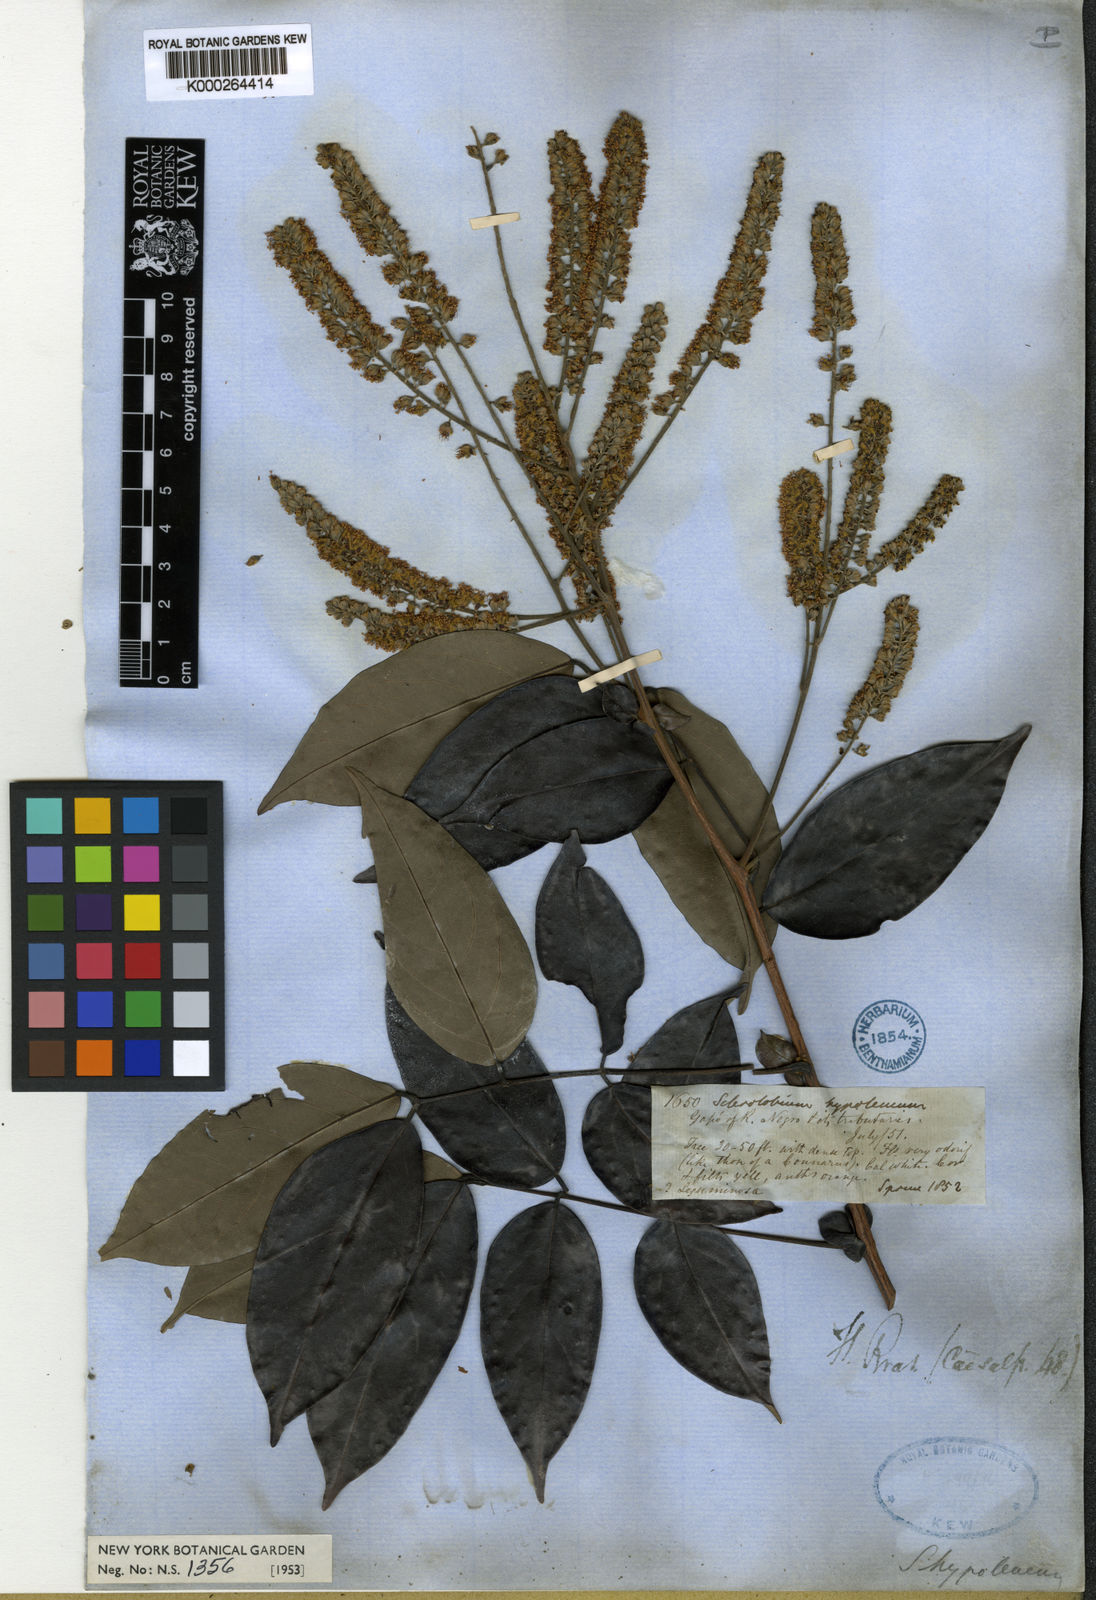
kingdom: Plantae
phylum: Tracheophyta
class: Magnoliopsida
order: Fabales
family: Fabaceae
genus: Tachigali
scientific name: Tachigali hypoleuca
